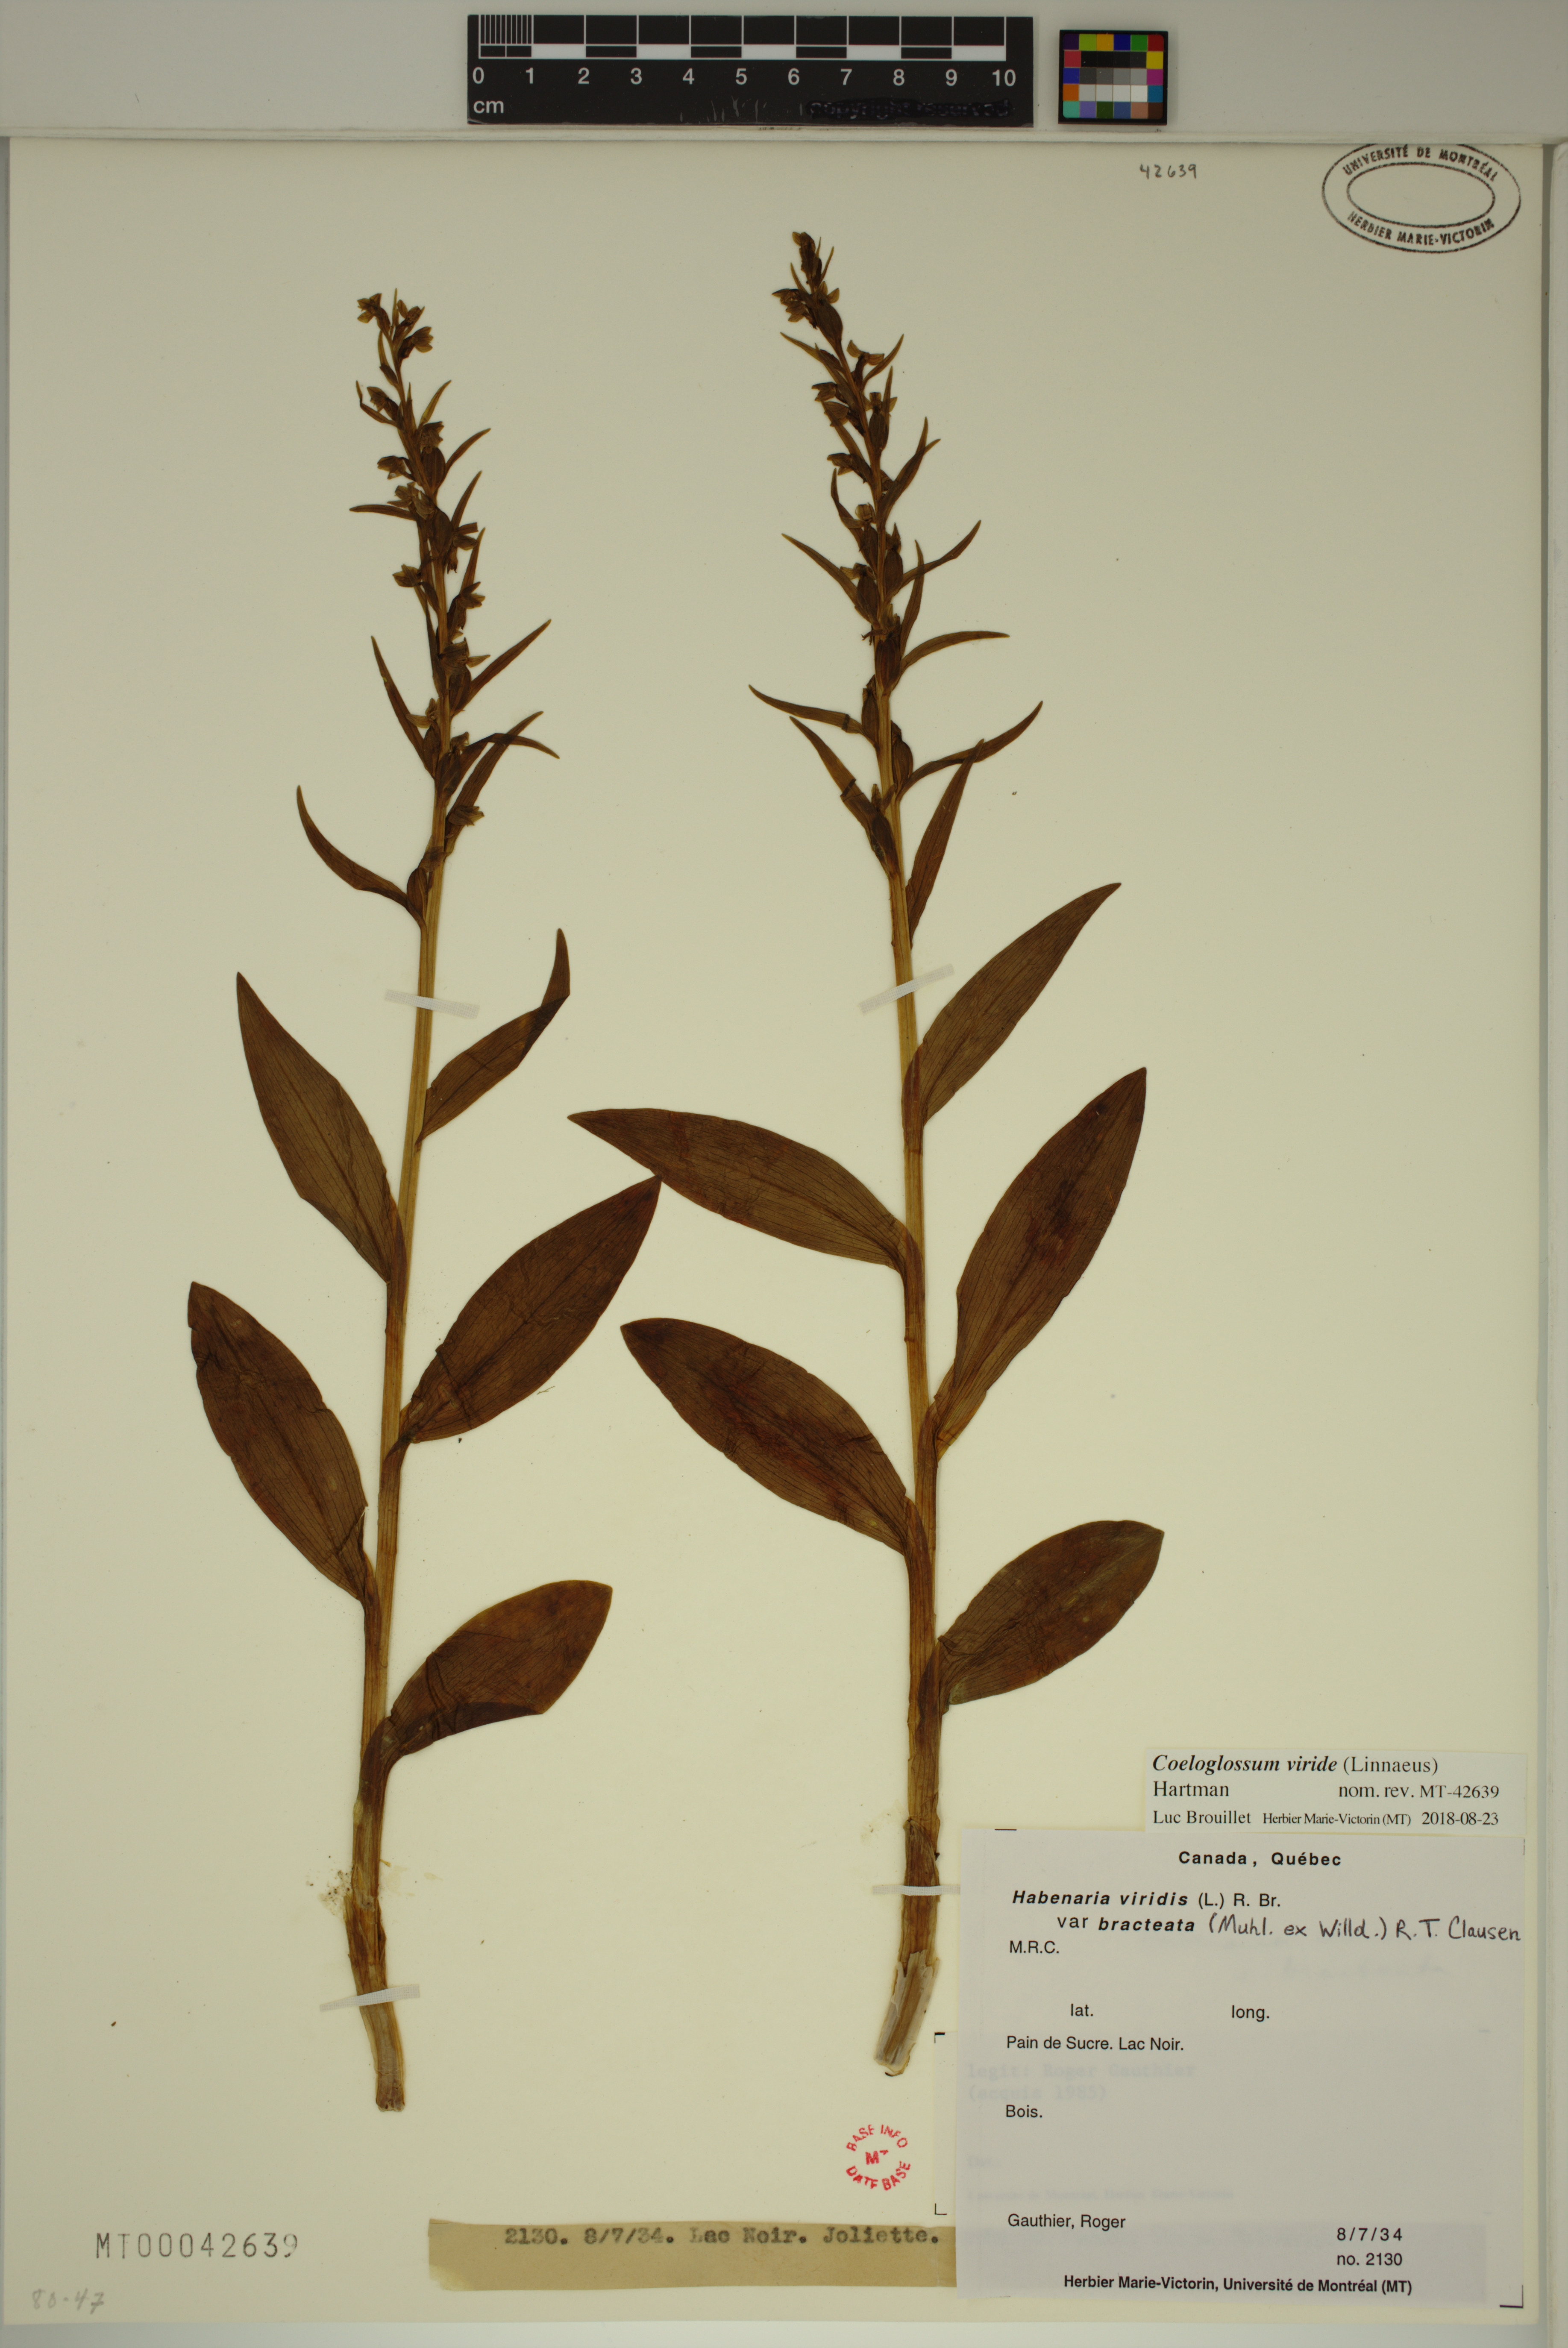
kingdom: Plantae
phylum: Tracheophyta
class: Liliopsida
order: Asparagales
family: Orchidaceae
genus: Dactylorhiza
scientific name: Dactylorhiza viridis
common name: Longbract frog orchid
